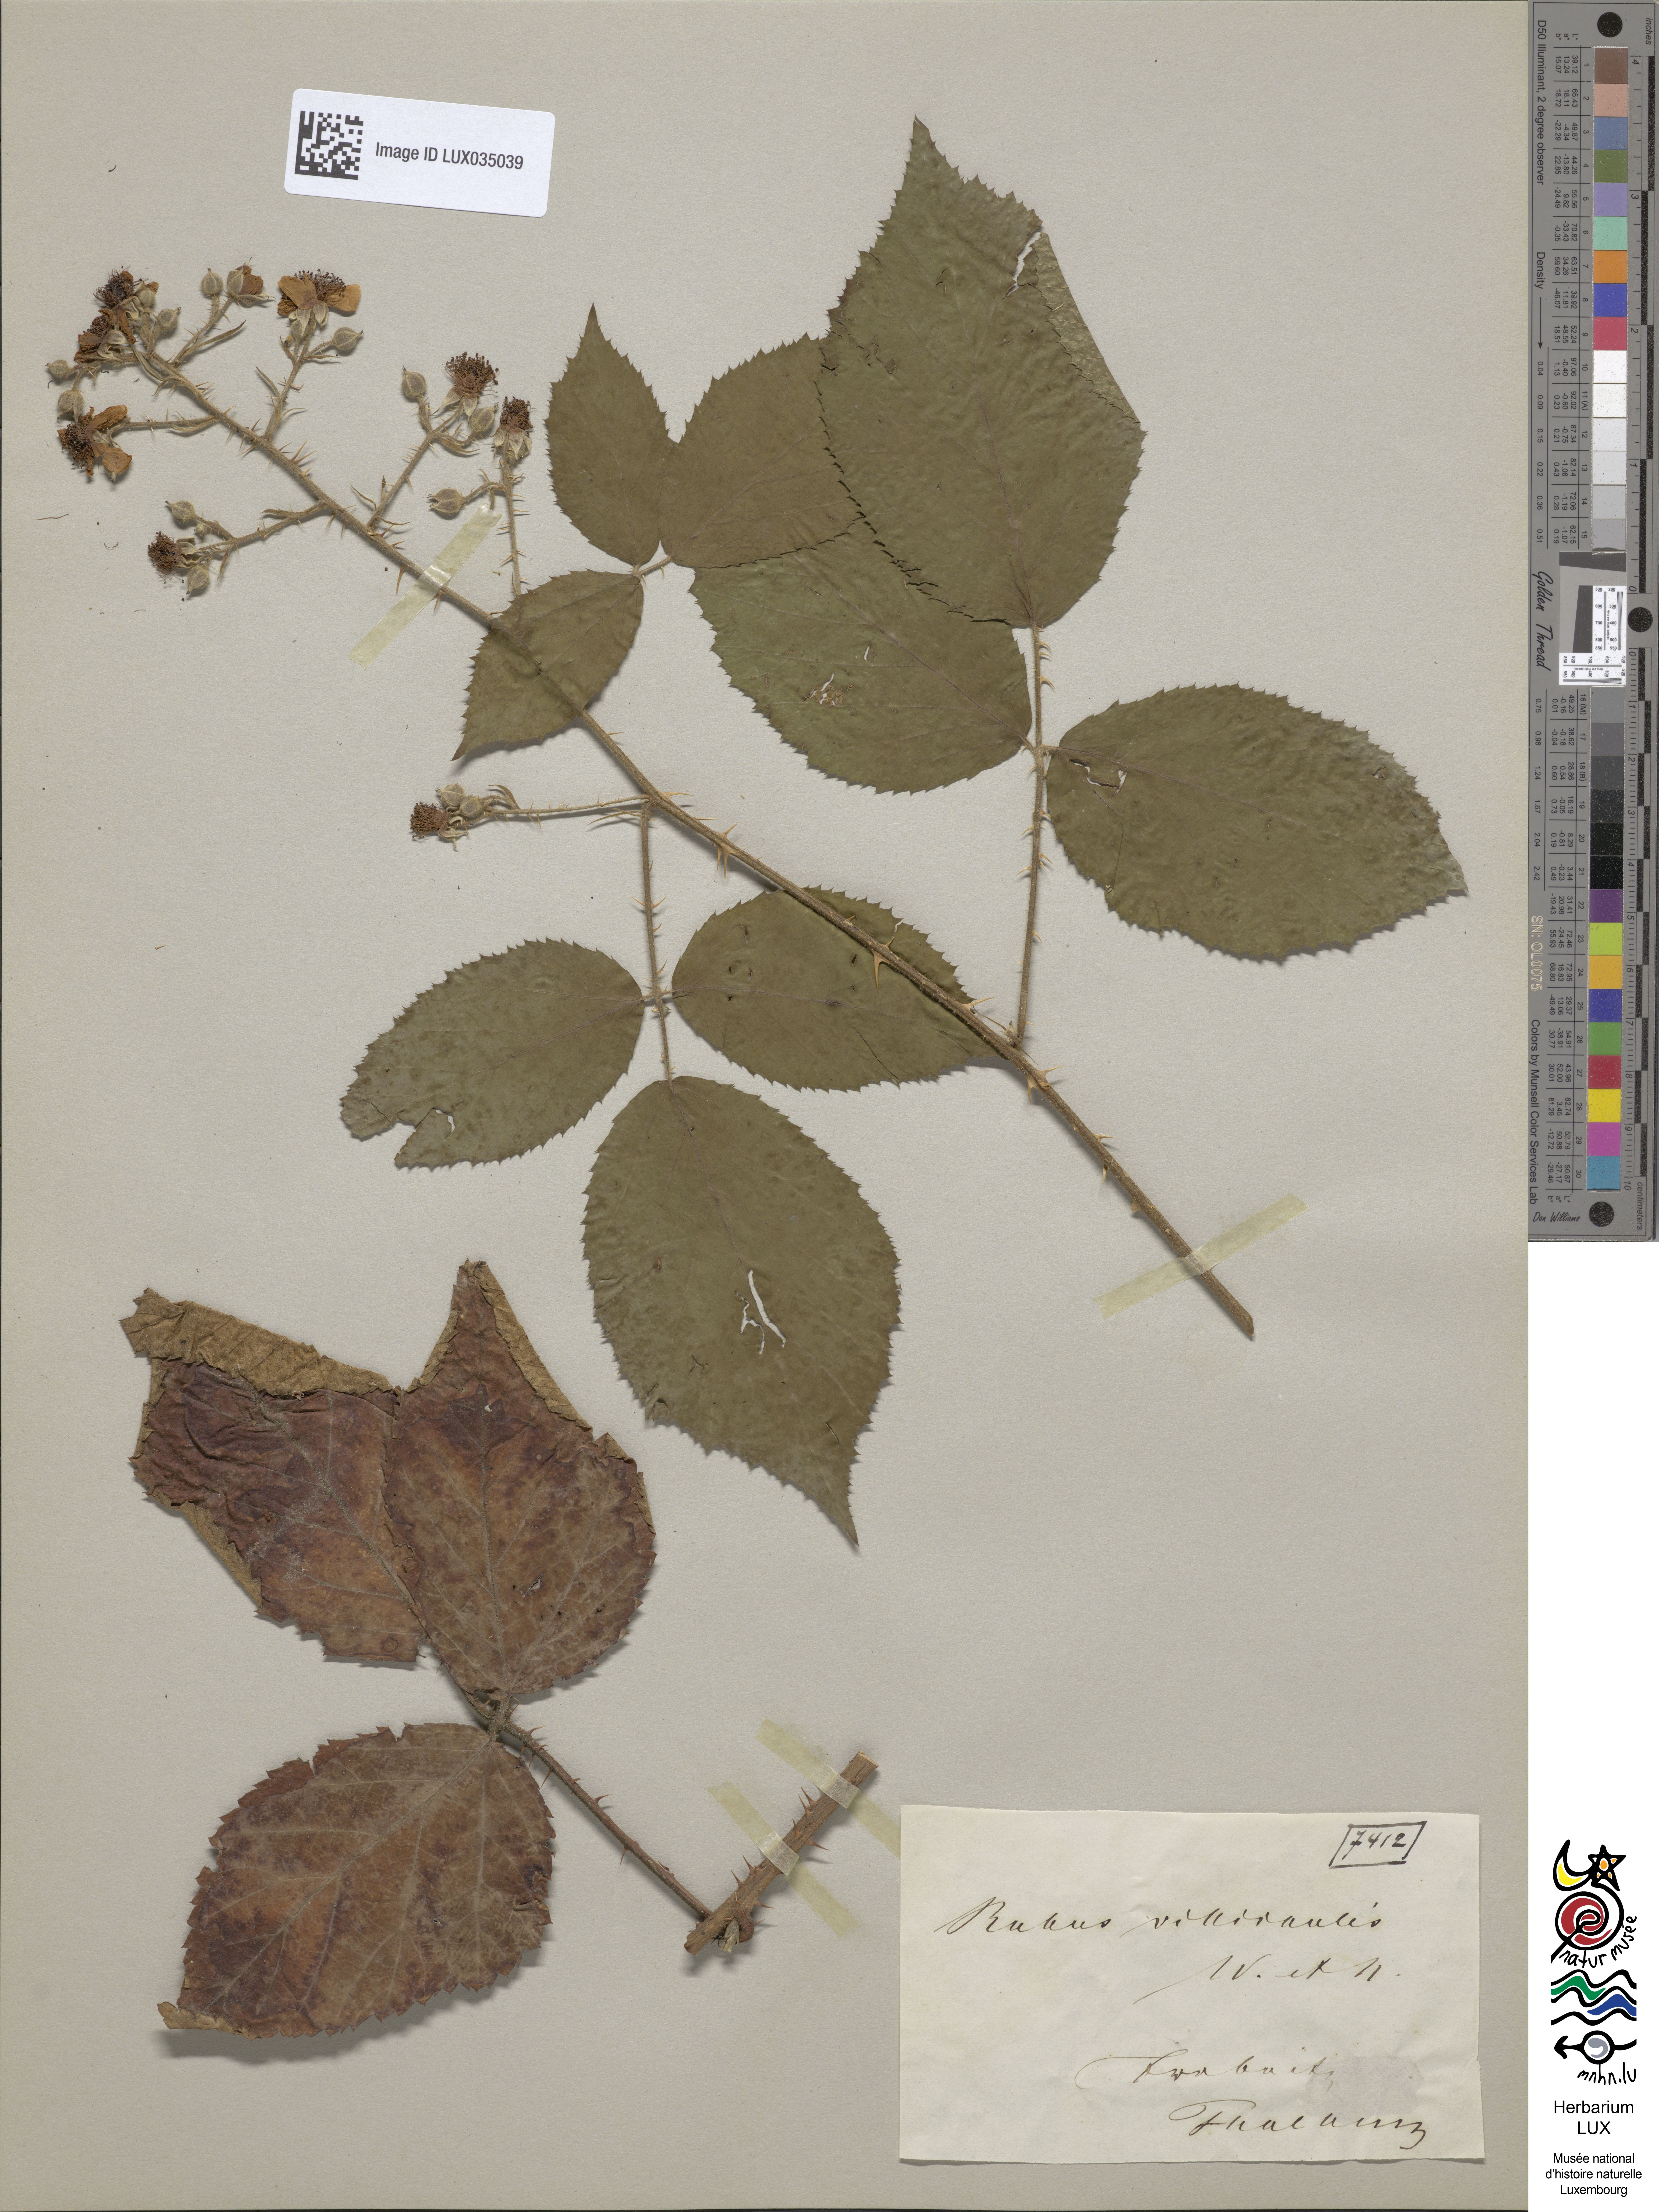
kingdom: Plantae
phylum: Tracheophyta
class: Magnoliopsida
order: Rosales
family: Rosaceae
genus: Rubus
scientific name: Rubus gracilis
